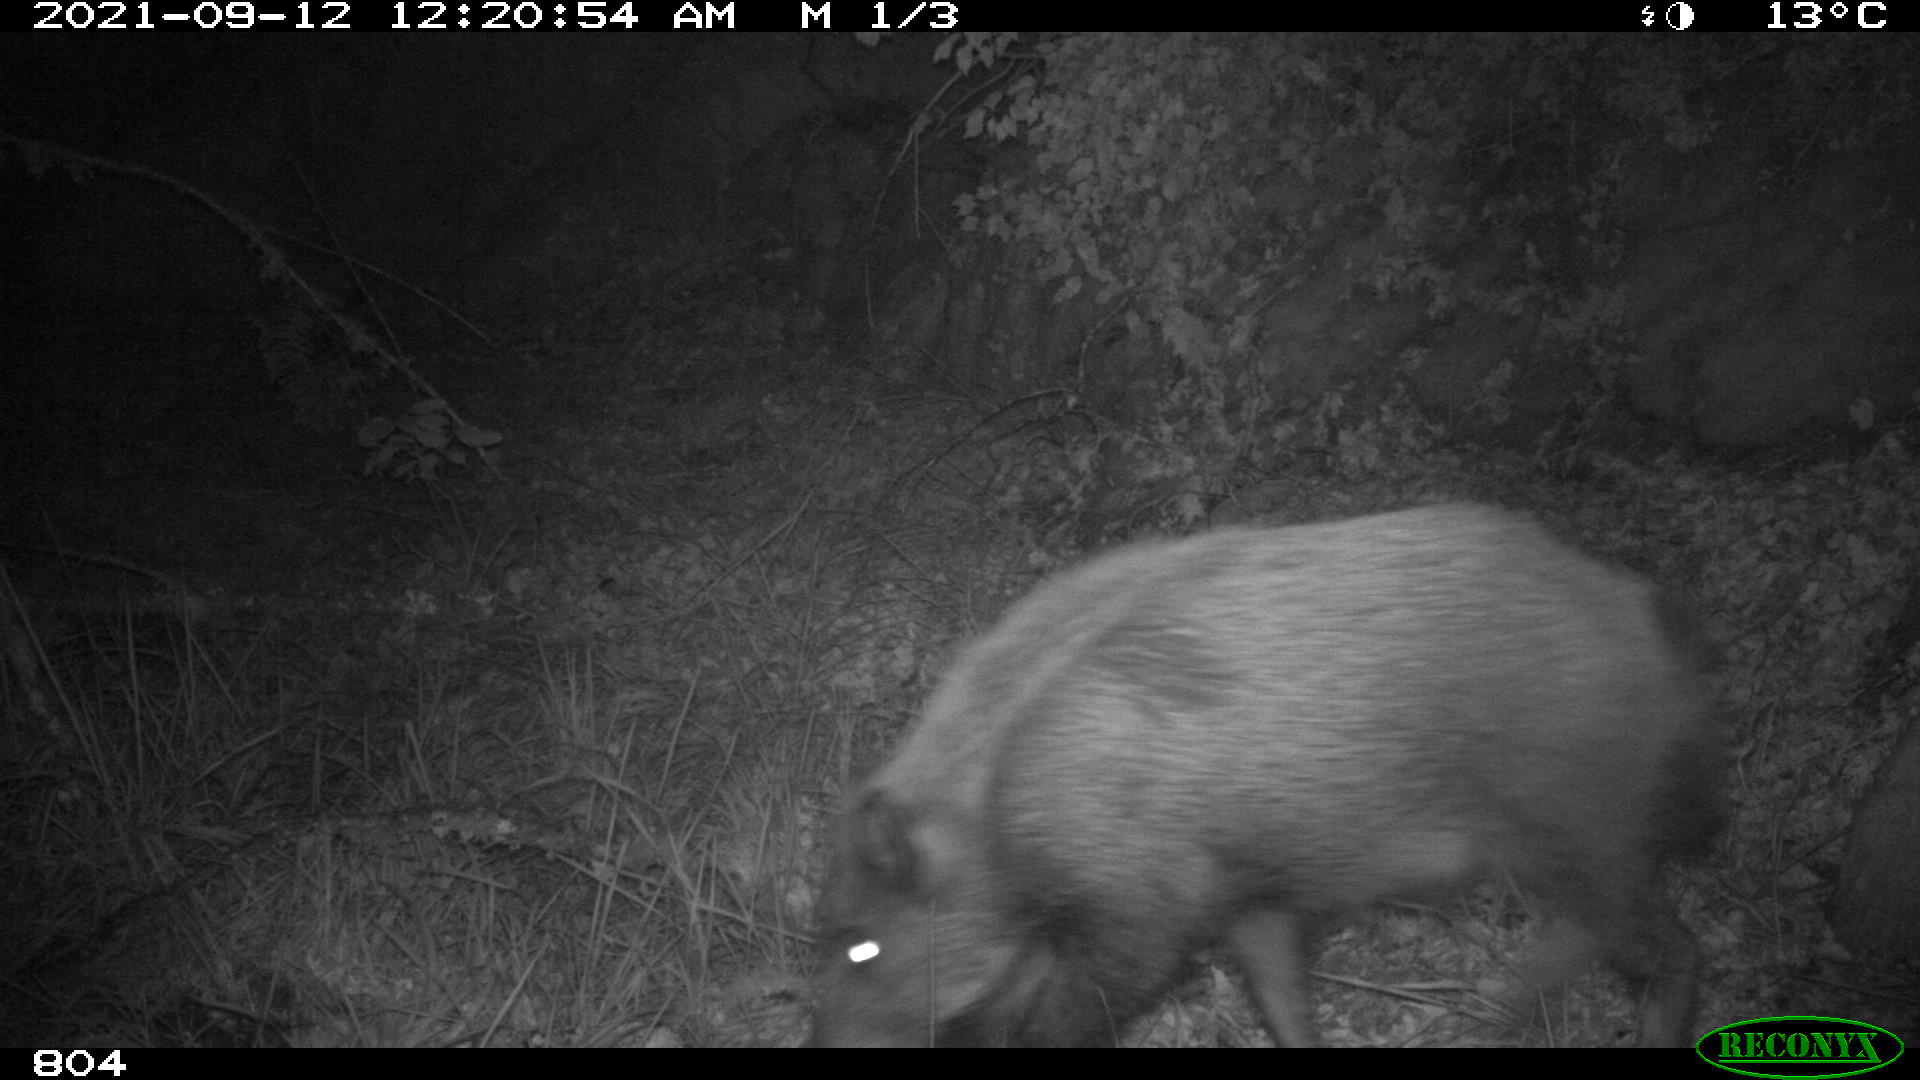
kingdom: Animalia
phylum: Chordata
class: Mammalia
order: Artiodactyla
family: Suidae
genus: Sus
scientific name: Sus scrofa
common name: Wild boar
